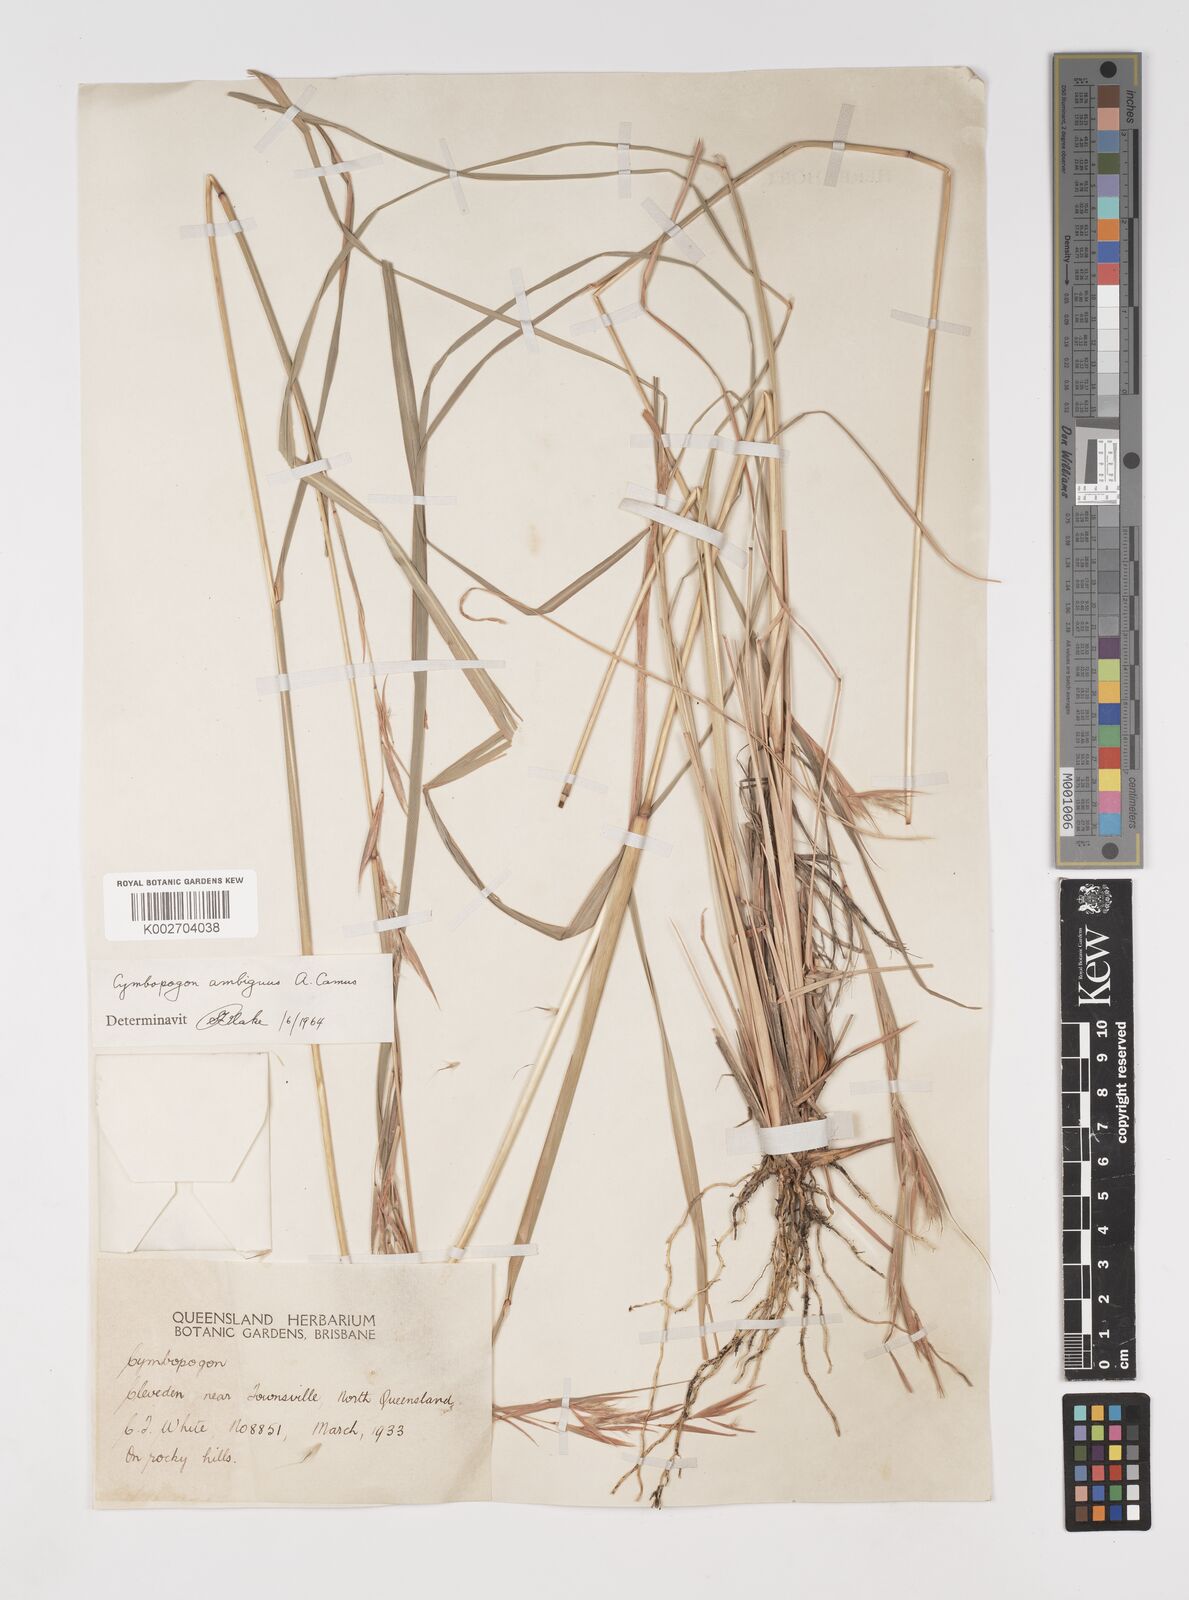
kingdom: Plantae
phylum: Tracheophyta
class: Liliopsida
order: Poales
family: Poaceae
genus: Cymbopogon
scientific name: Cymbopogon ambiguus
